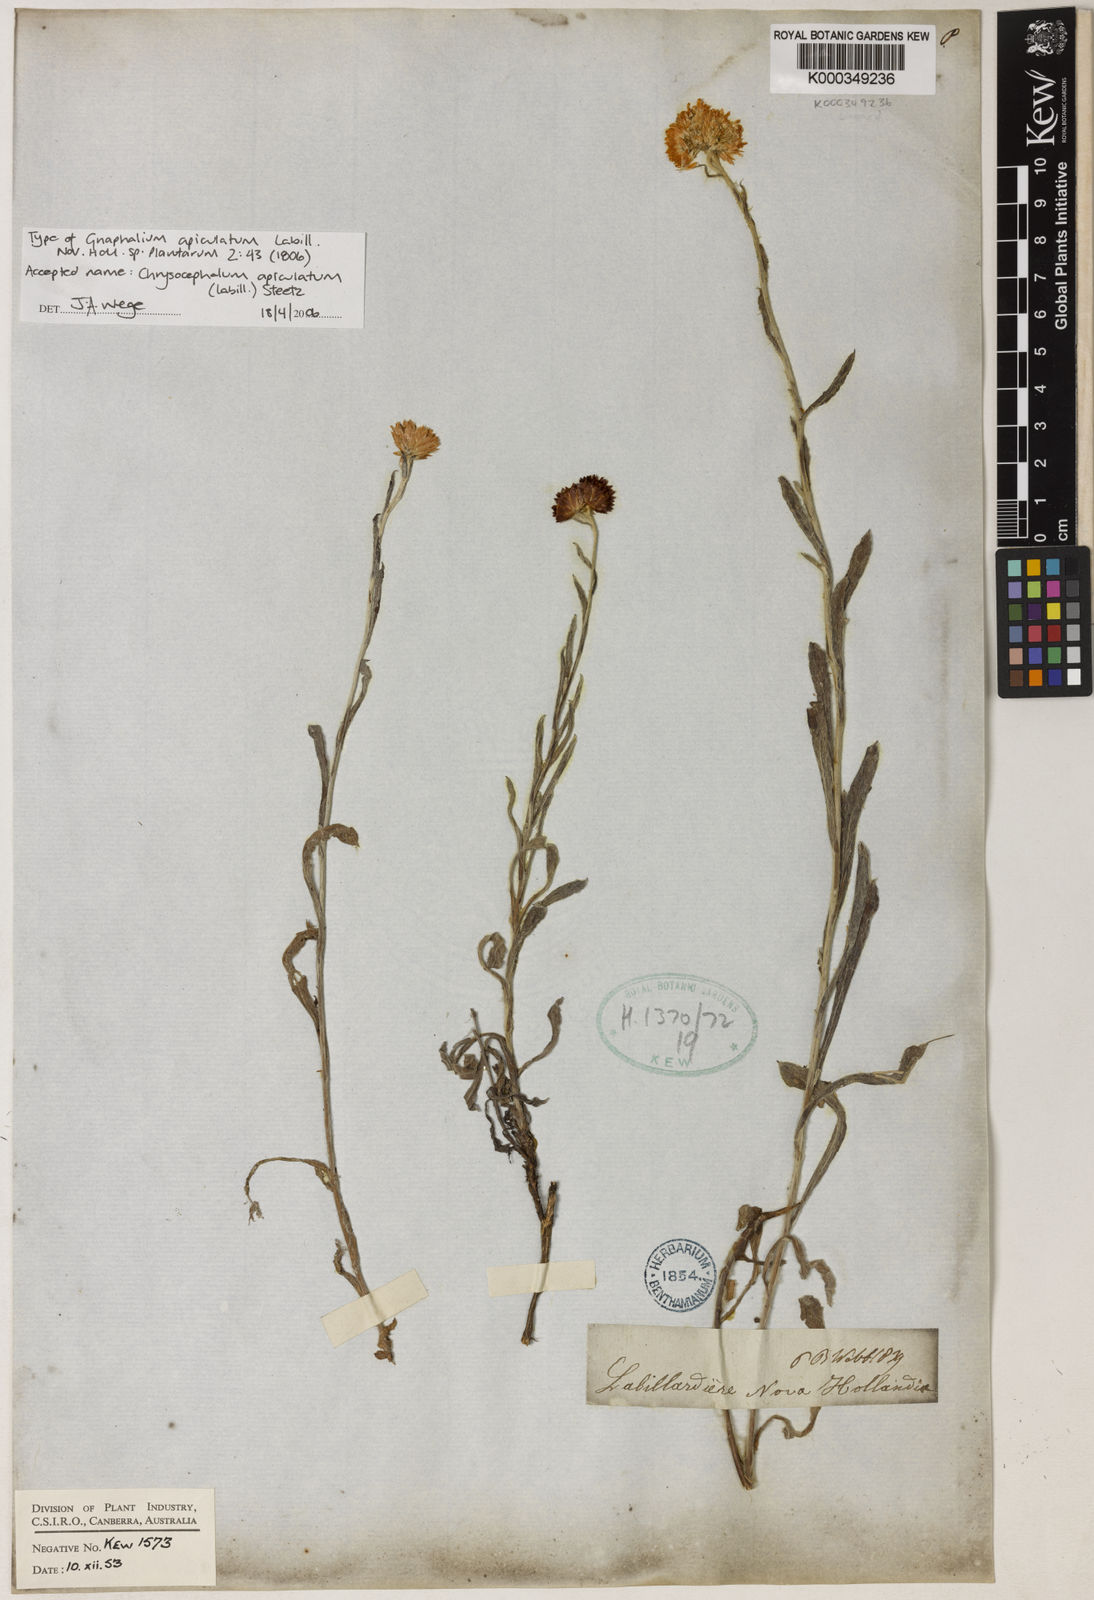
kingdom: Plantae
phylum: Tracheophyta
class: Magnoliopsida
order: Asterales
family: Asteraceae
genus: Chrysocephalum
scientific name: Chrysocephalum apiculatum
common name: Common everlasting
